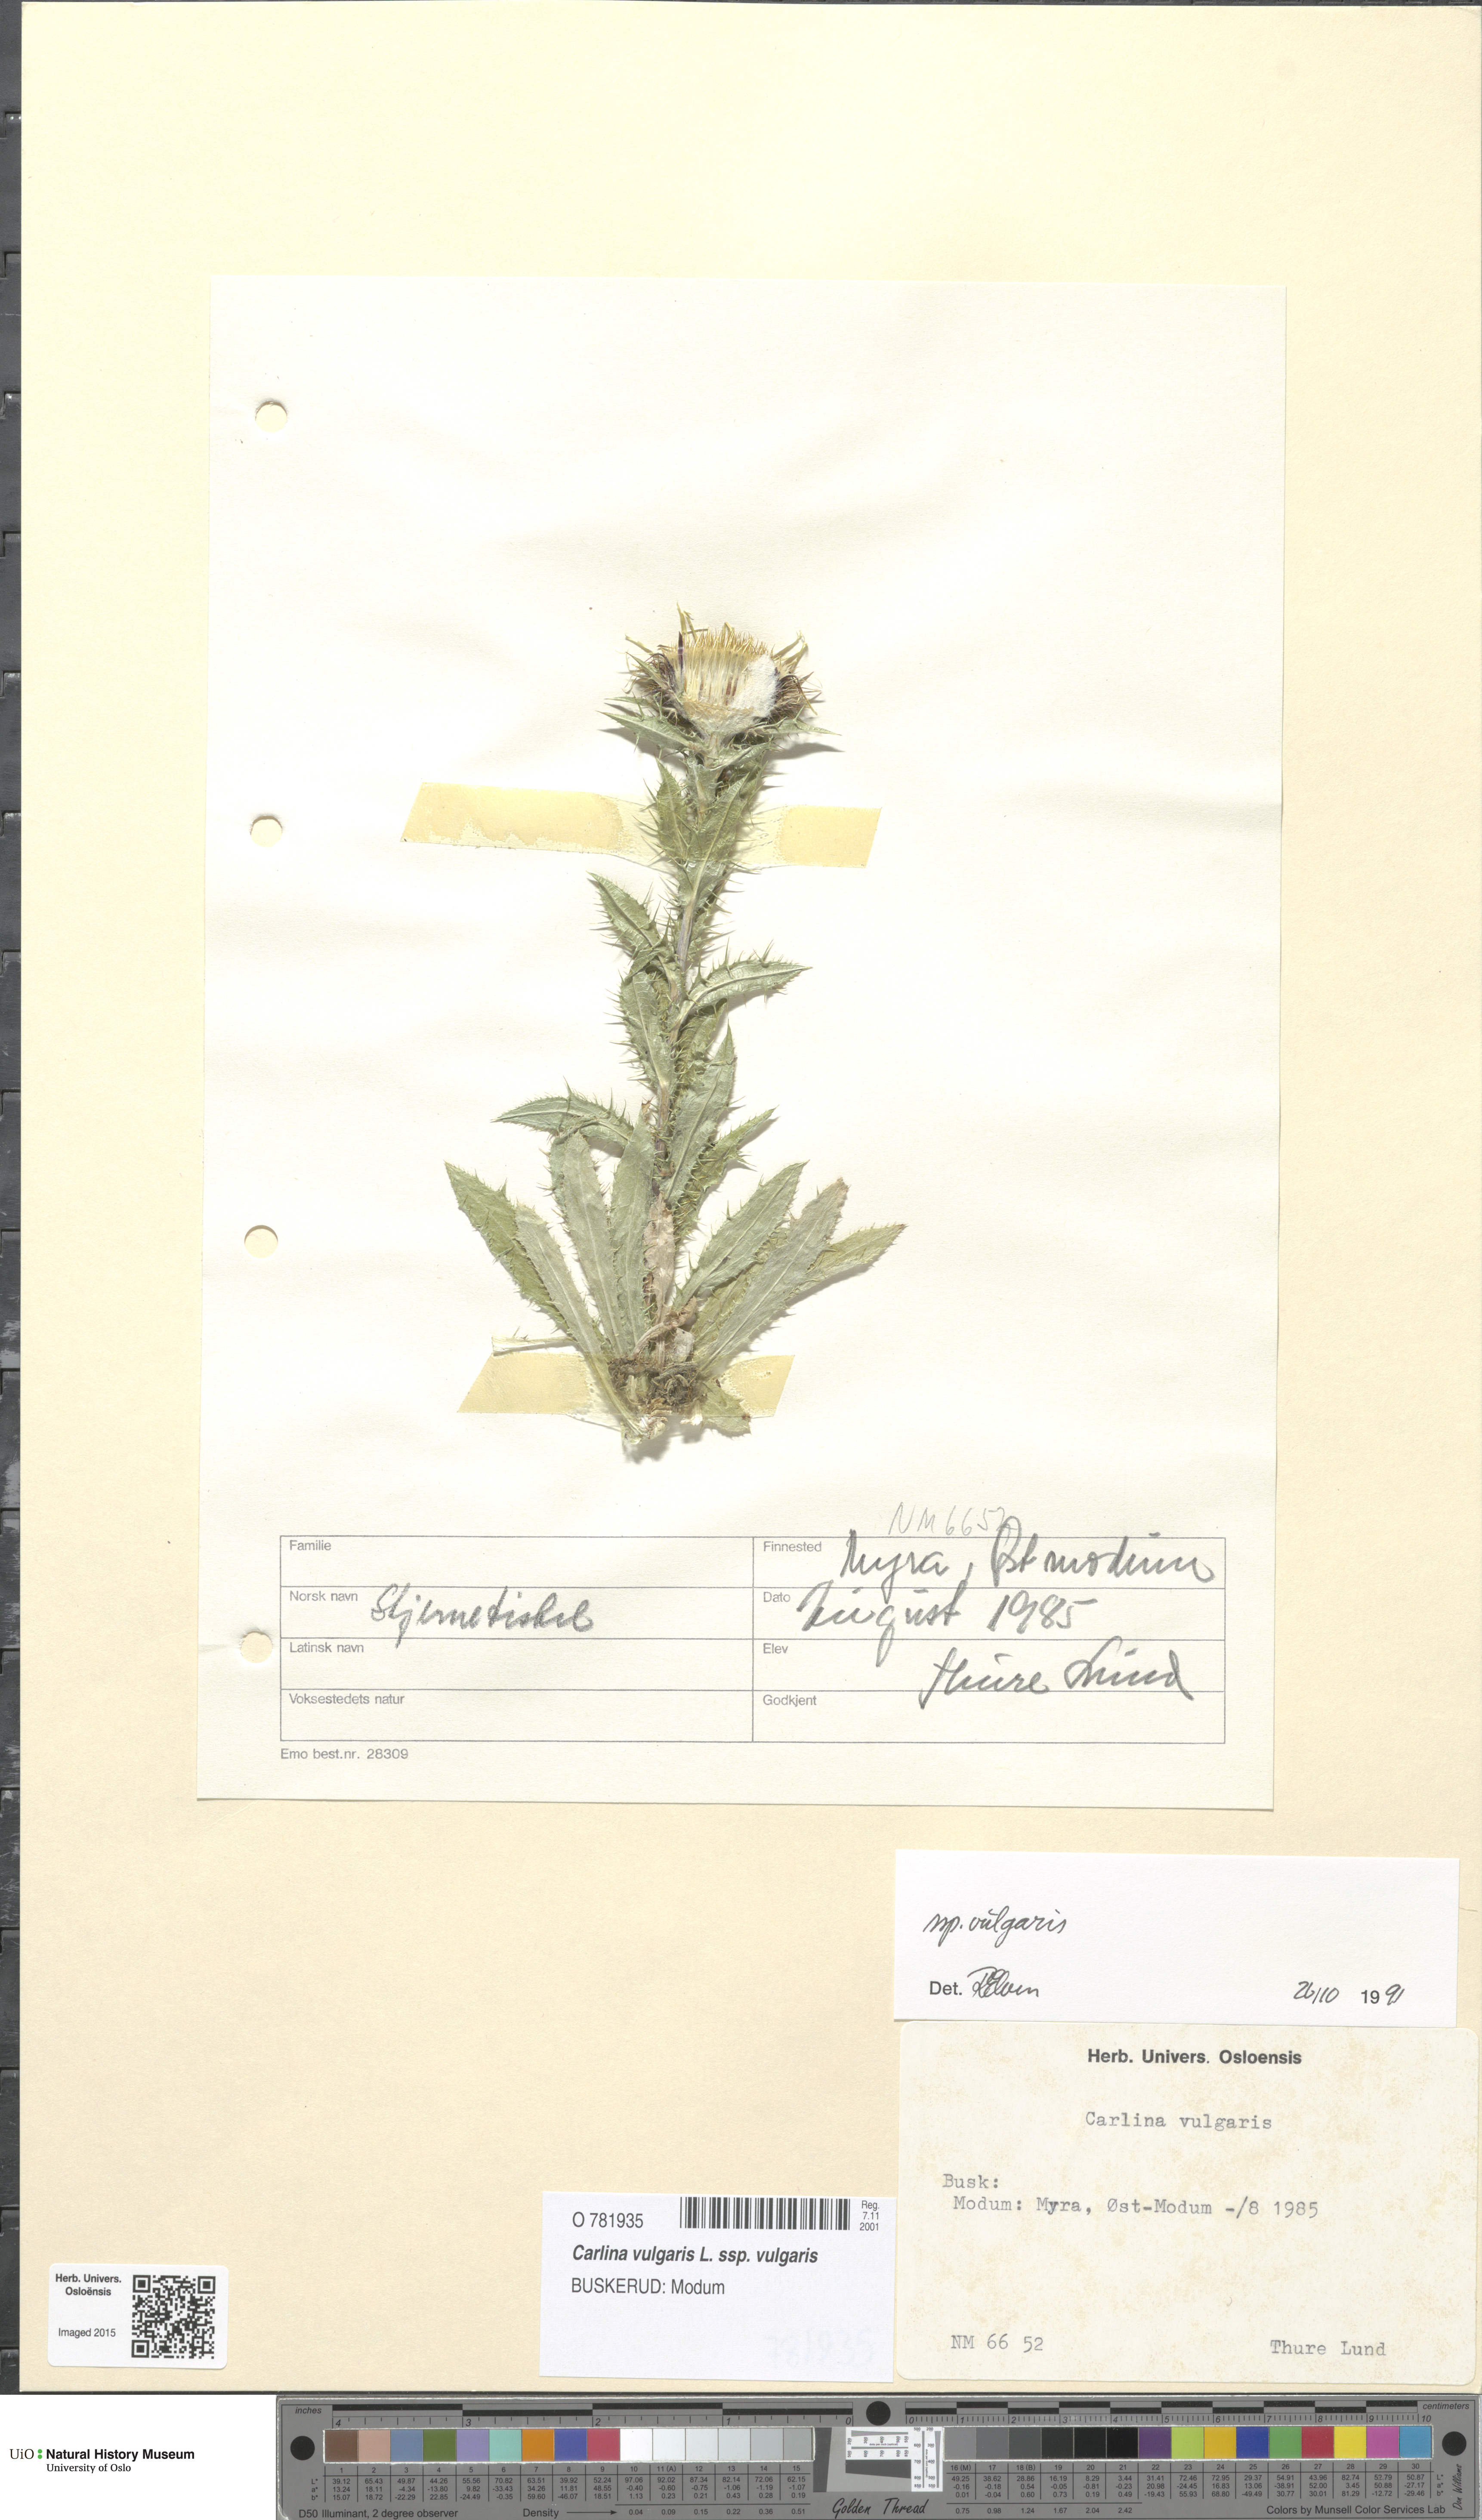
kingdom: Plantae
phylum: Tracheophyta
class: Magnoliopsida
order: Asterales
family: Asteraceae
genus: Carlina
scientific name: Carlina vulgaris
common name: Carline thistle
